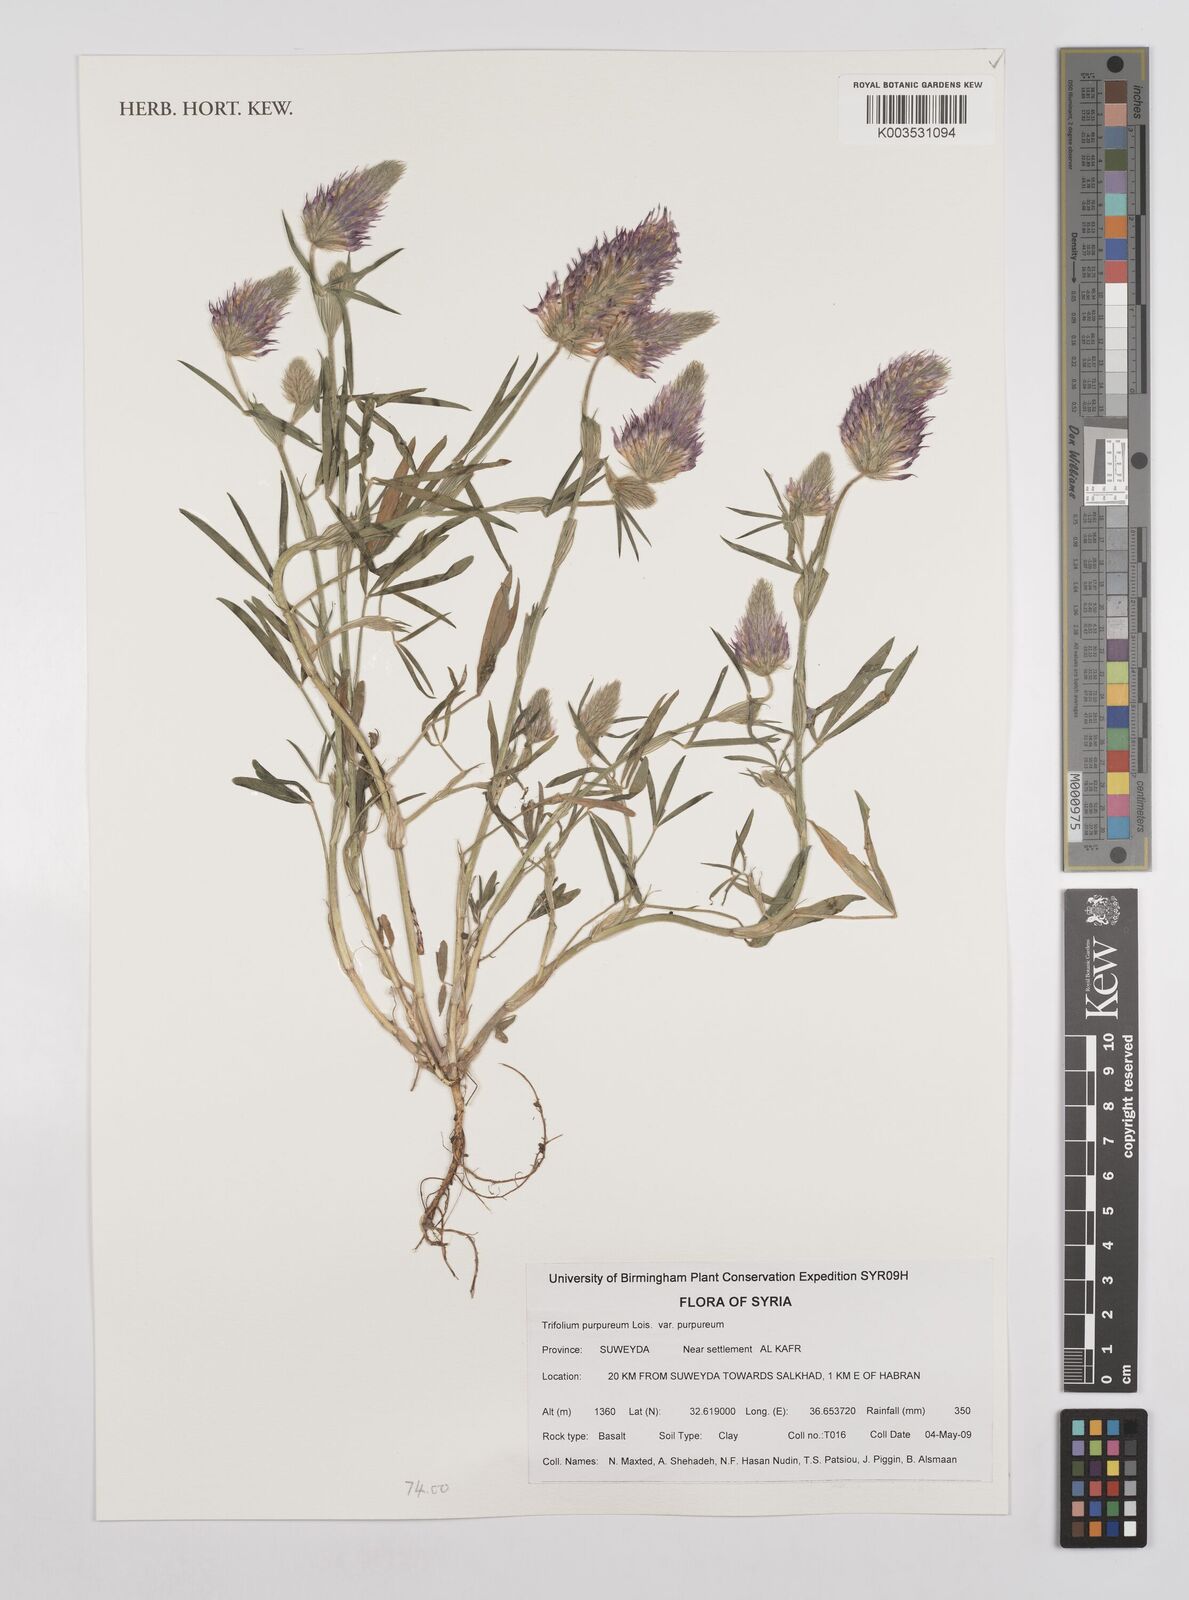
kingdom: Plantae
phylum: Tracheophyta
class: Magnoliopsida
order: Fabales
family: Fabaceae
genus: Trifolium
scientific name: Trifolium purpureum
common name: Purple clover
